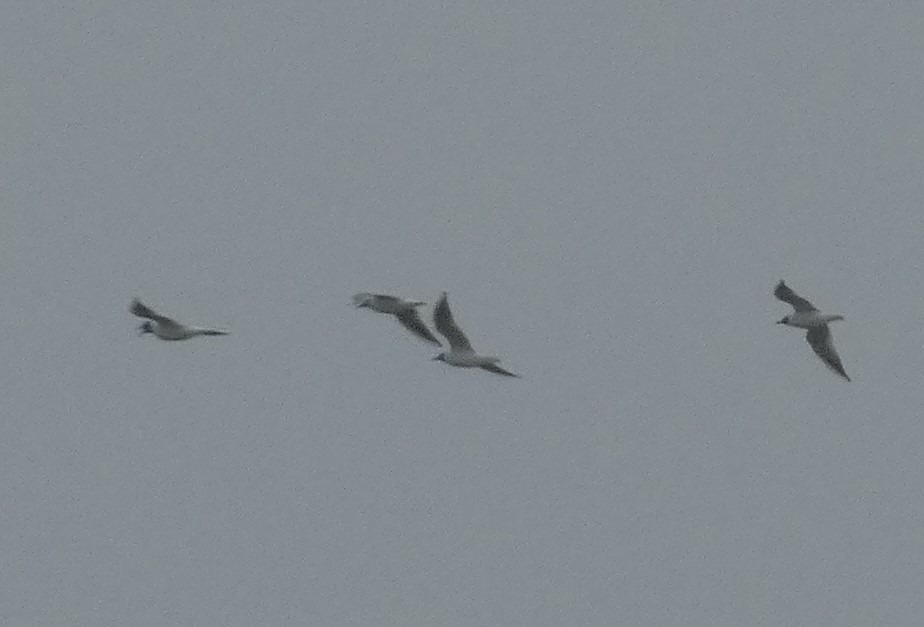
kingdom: Animalia
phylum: Chordata
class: Aves
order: Charadriiformes
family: Laridae
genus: Chroicocephalus
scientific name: Chroicocephalus ridibundus
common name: Hættemåge
